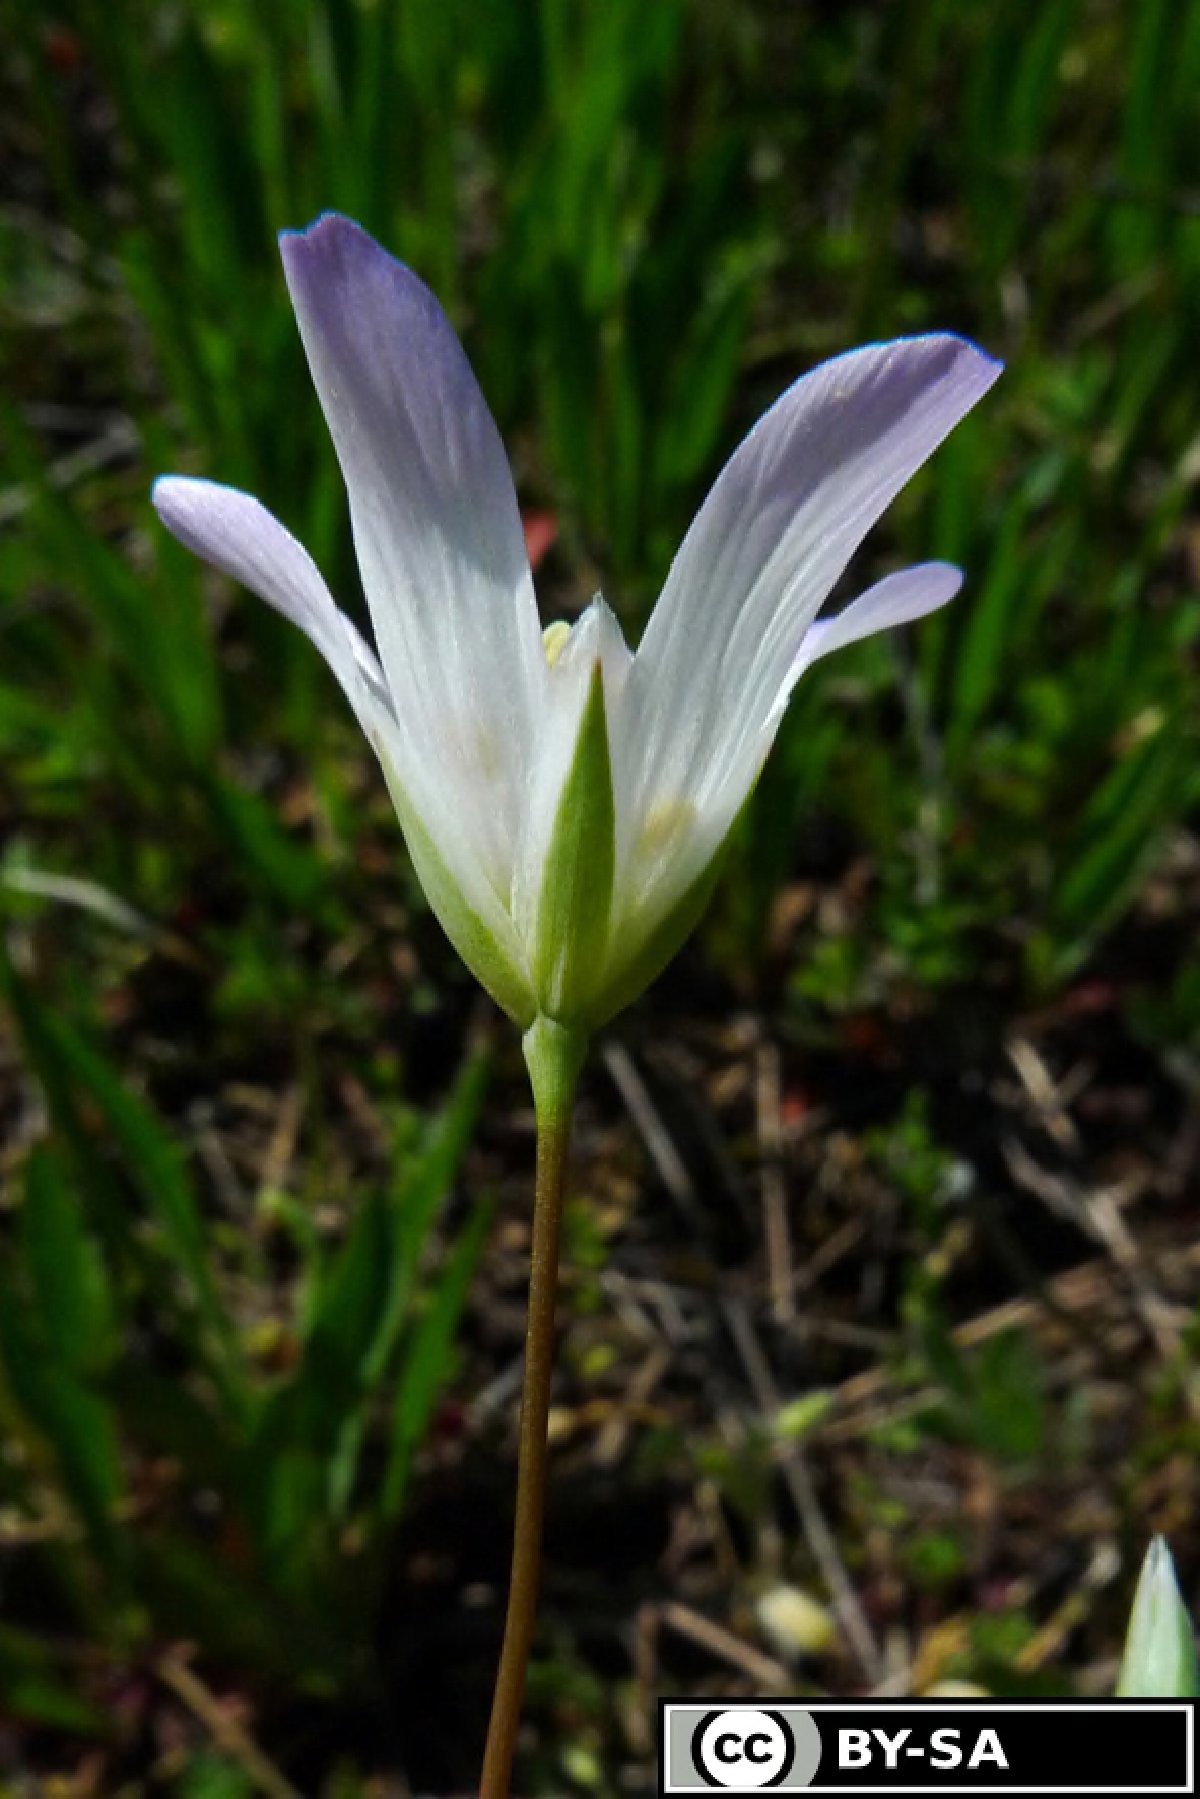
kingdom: Plantae
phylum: Tracheophyta
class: Magnoliopsida
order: Caryophyllales
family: Caryophyllaceae
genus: Moenchia
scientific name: Moenchia mantica
